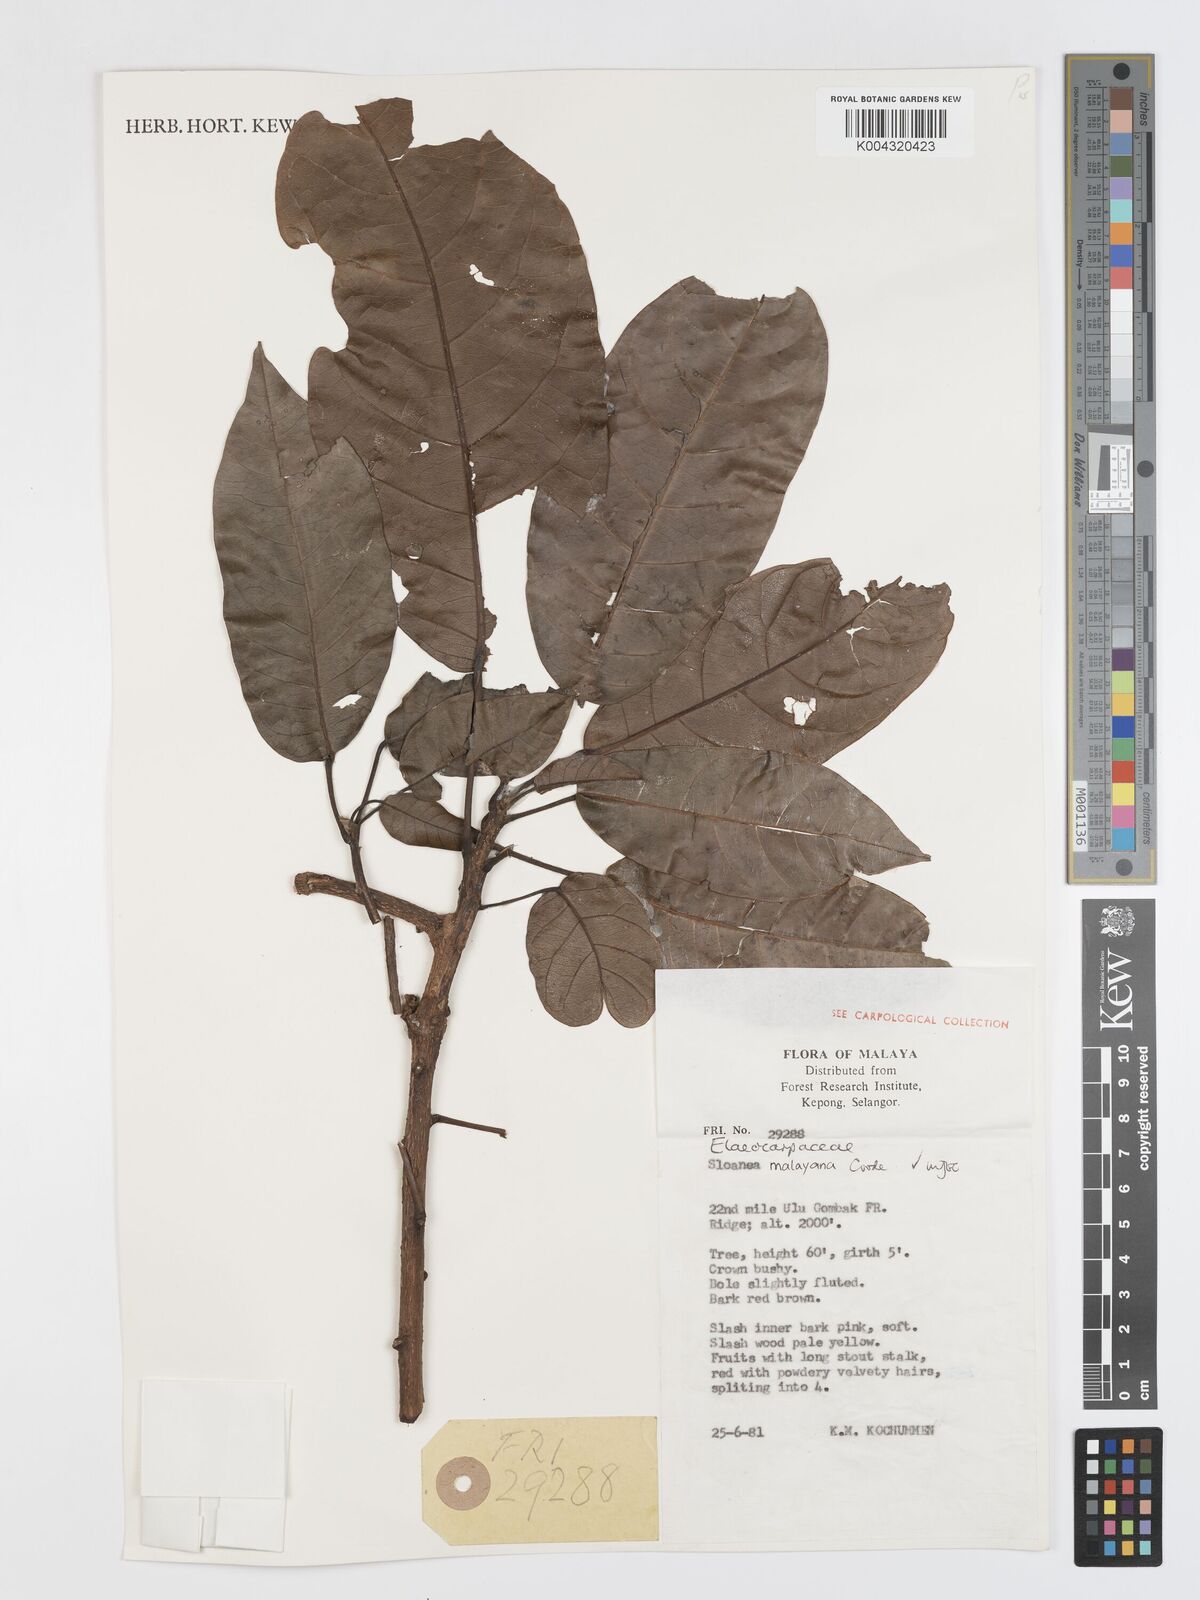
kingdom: Plantae
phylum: Tracheophyta
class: Magnoliopsida
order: Oxalidales
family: Elaeocarpaceae
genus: Sloanea
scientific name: Sloanea malayana
